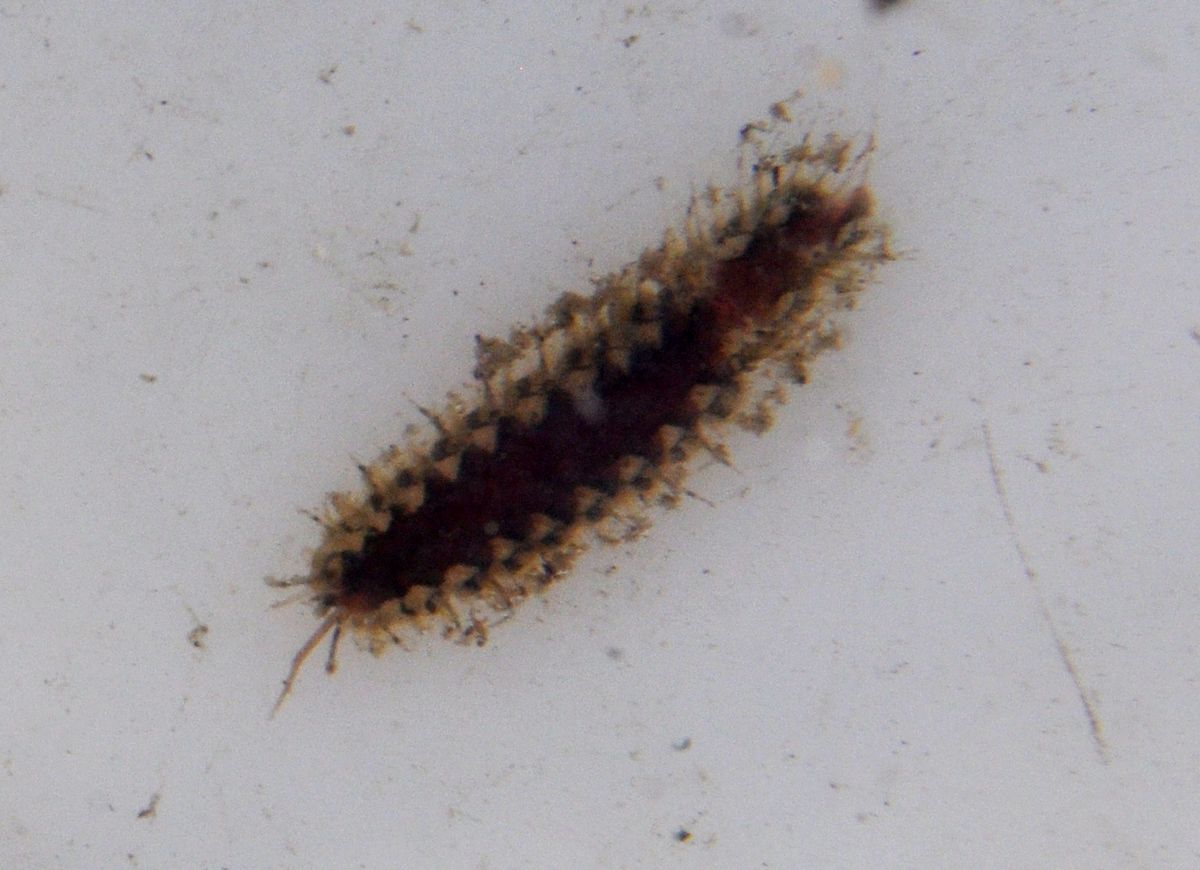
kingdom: Animalia
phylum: Annelida
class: Polychaeta
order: Phyllodocida
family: Polynoidae
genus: Harmothoe
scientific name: Harmothoe imbricata
